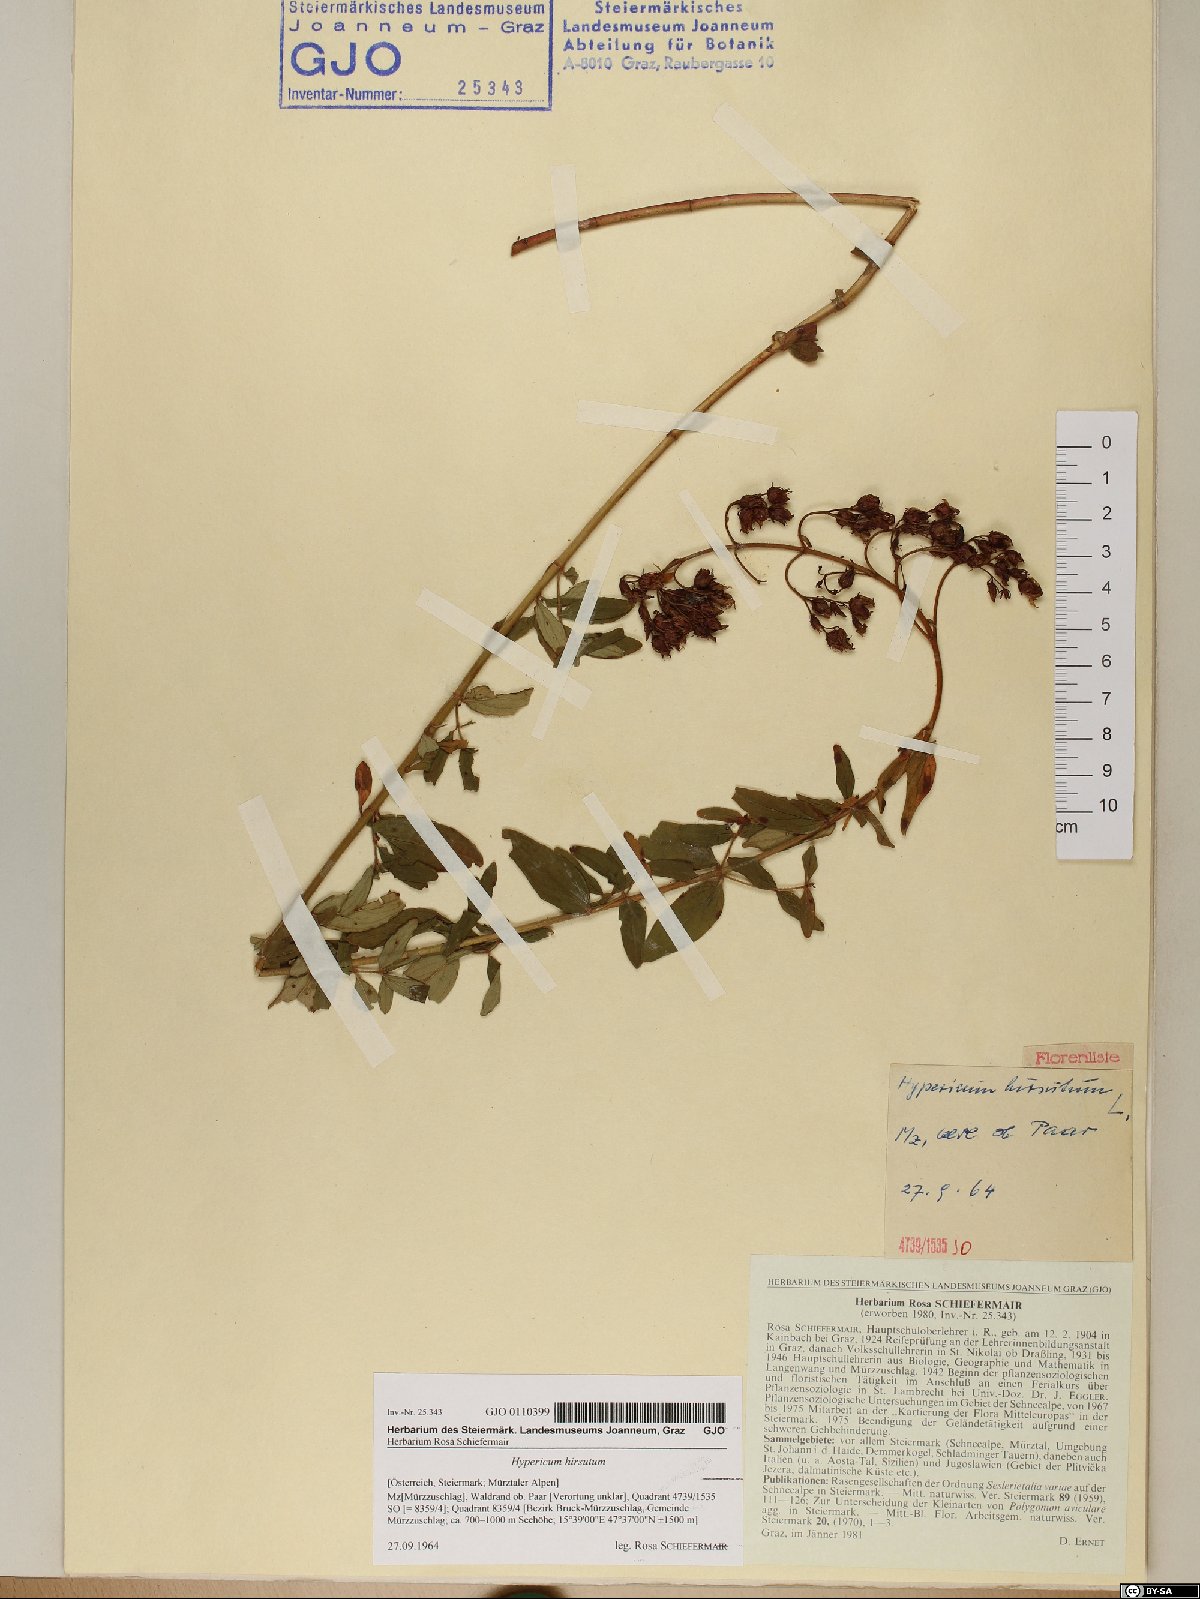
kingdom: Plantae
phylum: Tracheophyta
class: Magnoliopsida
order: Malpighiales
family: Hypericaceae
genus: Hypericum
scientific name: Hypericum hirsutum
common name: Hairy st. john's-wort
